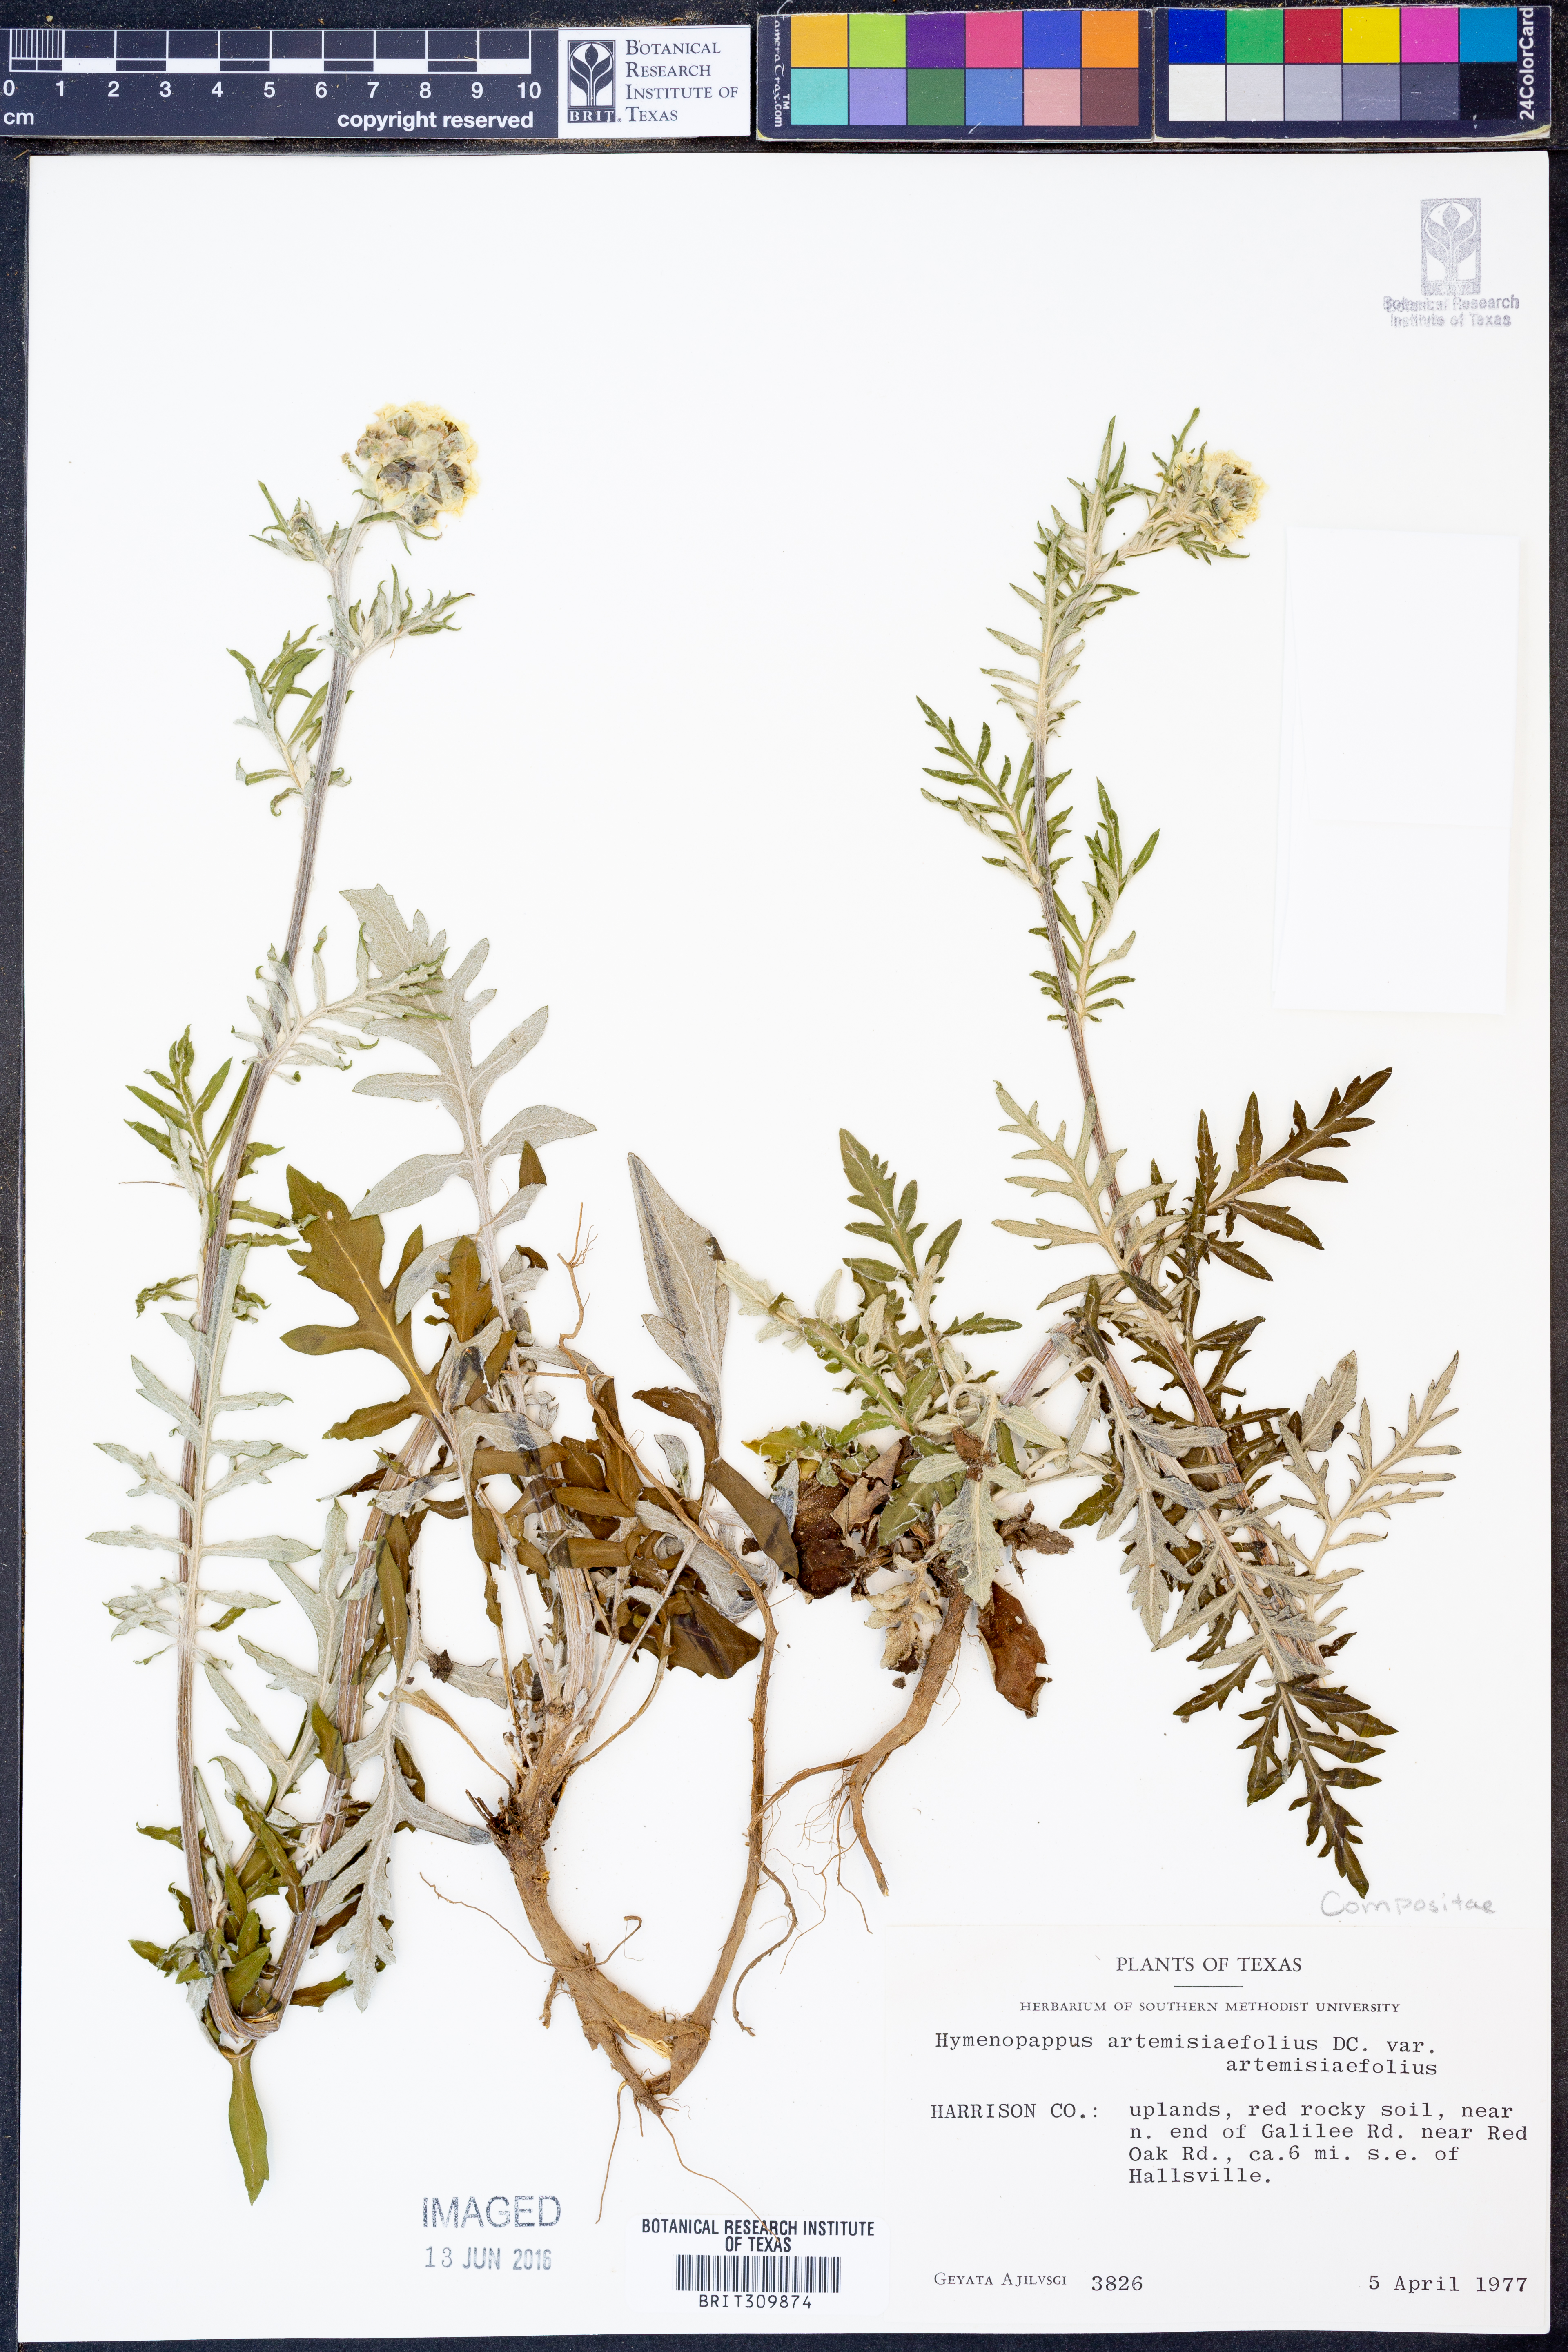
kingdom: Plantae
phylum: Tracheophyta
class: Magnoliopsida
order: Asterales
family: Asteraceae
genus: Hymenopappus
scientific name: Hymenopappus artemisiifolius
